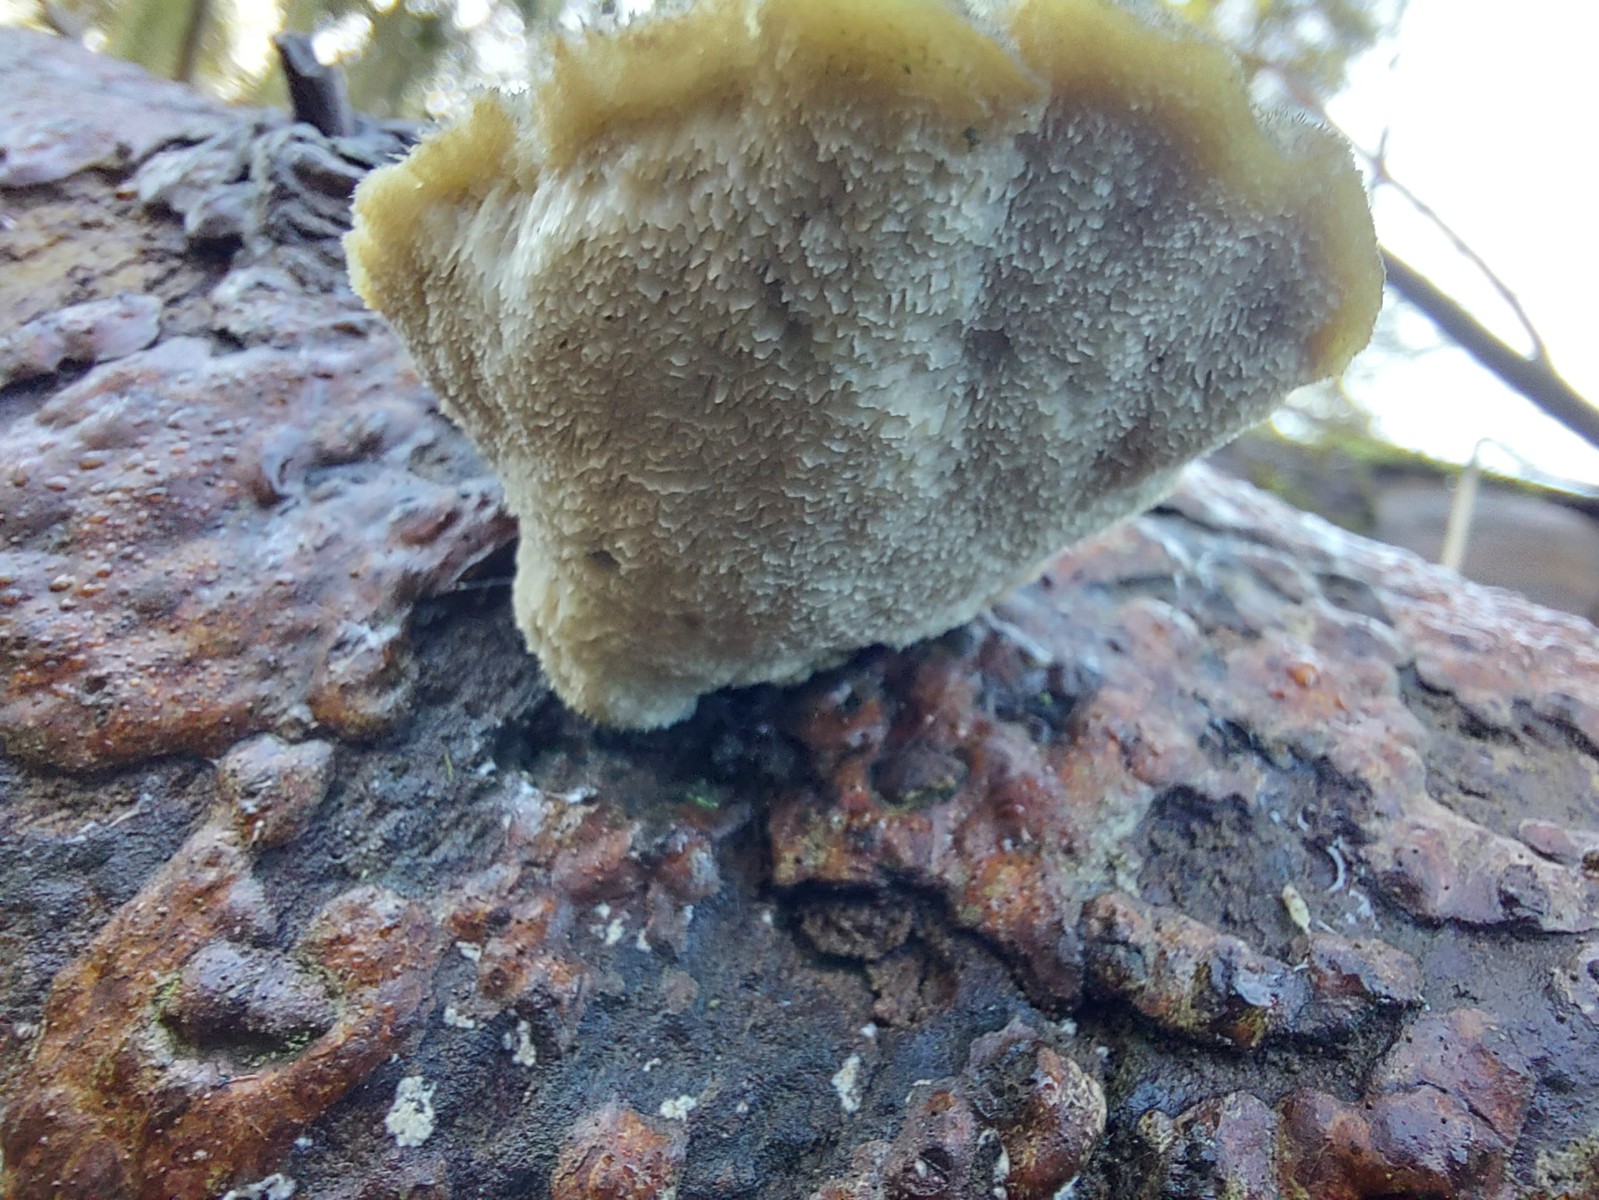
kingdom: Fungi
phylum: Basidiomycota
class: Agaricomycetes
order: Polyporales
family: Polyporaceae
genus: Cyanosporus
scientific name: Cyanosporus caesius
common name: blålig kødporesvamp
